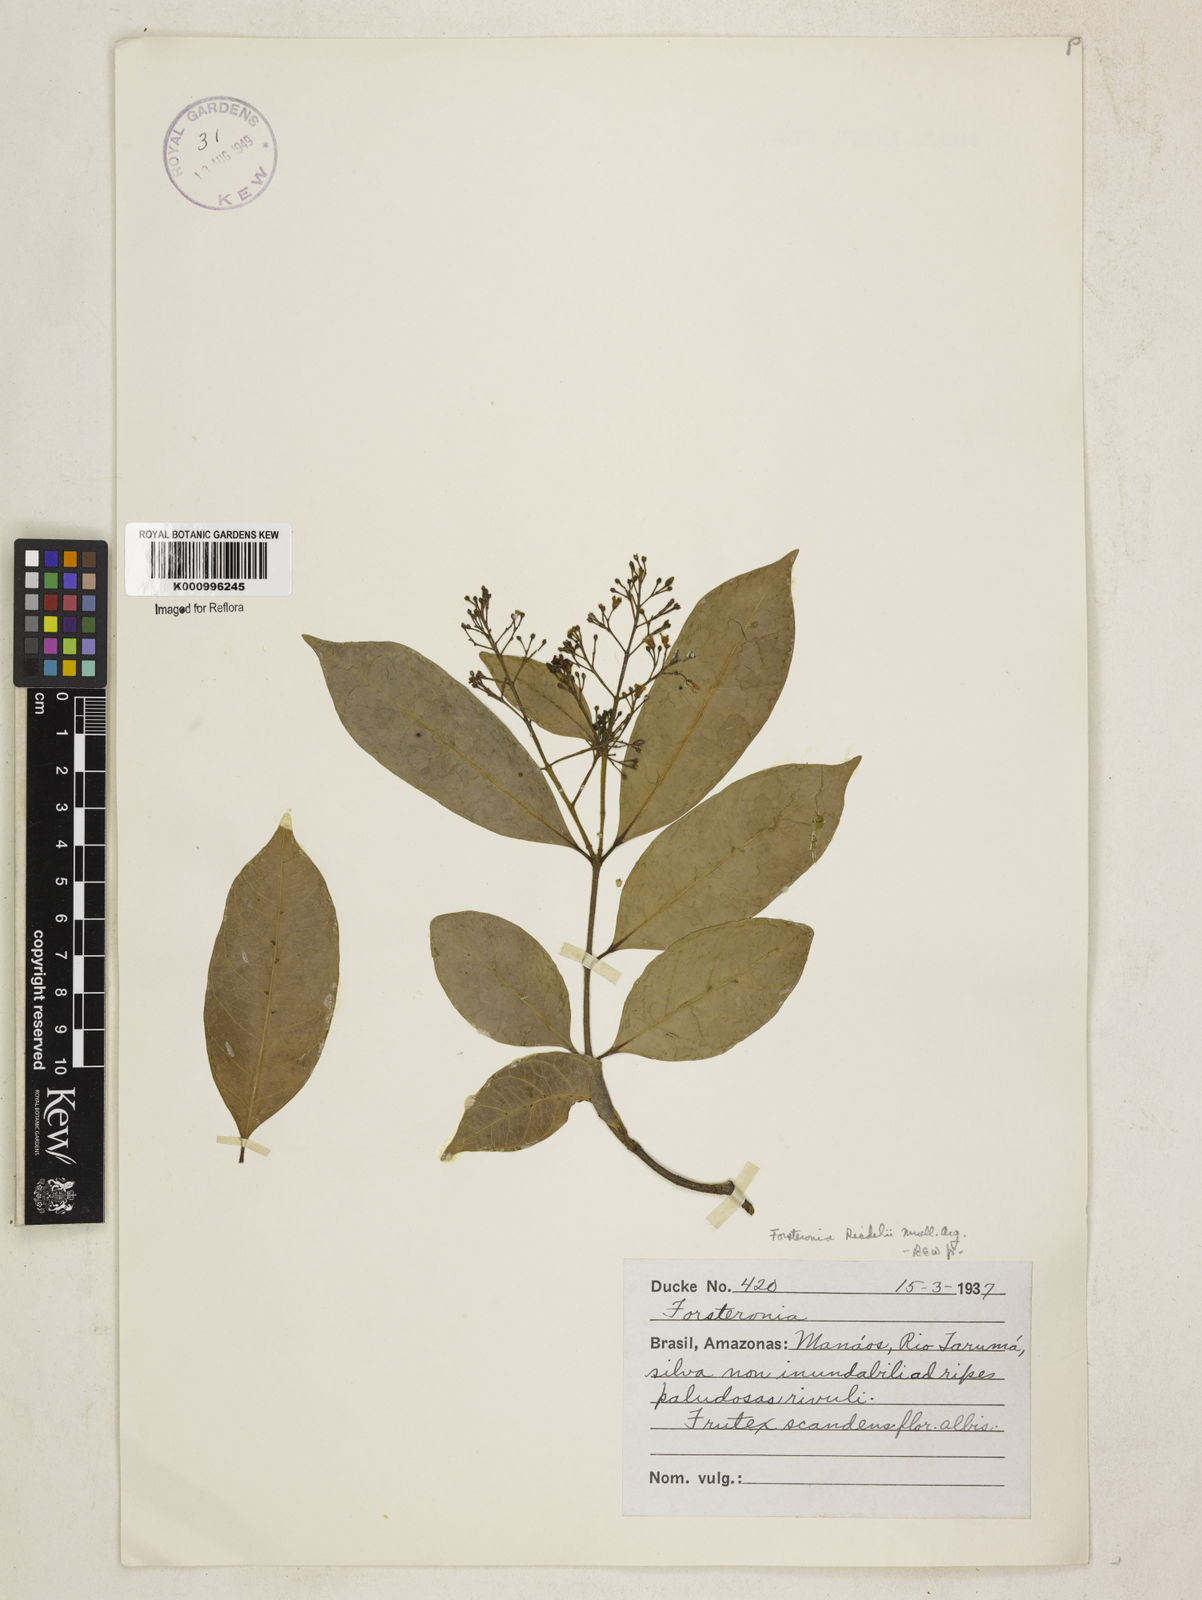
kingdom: Plantae
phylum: Tracheophyta
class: Magnoliopsida
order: Gentianales
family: Apocynaceae
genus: Forsteronia
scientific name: Forsteronia
